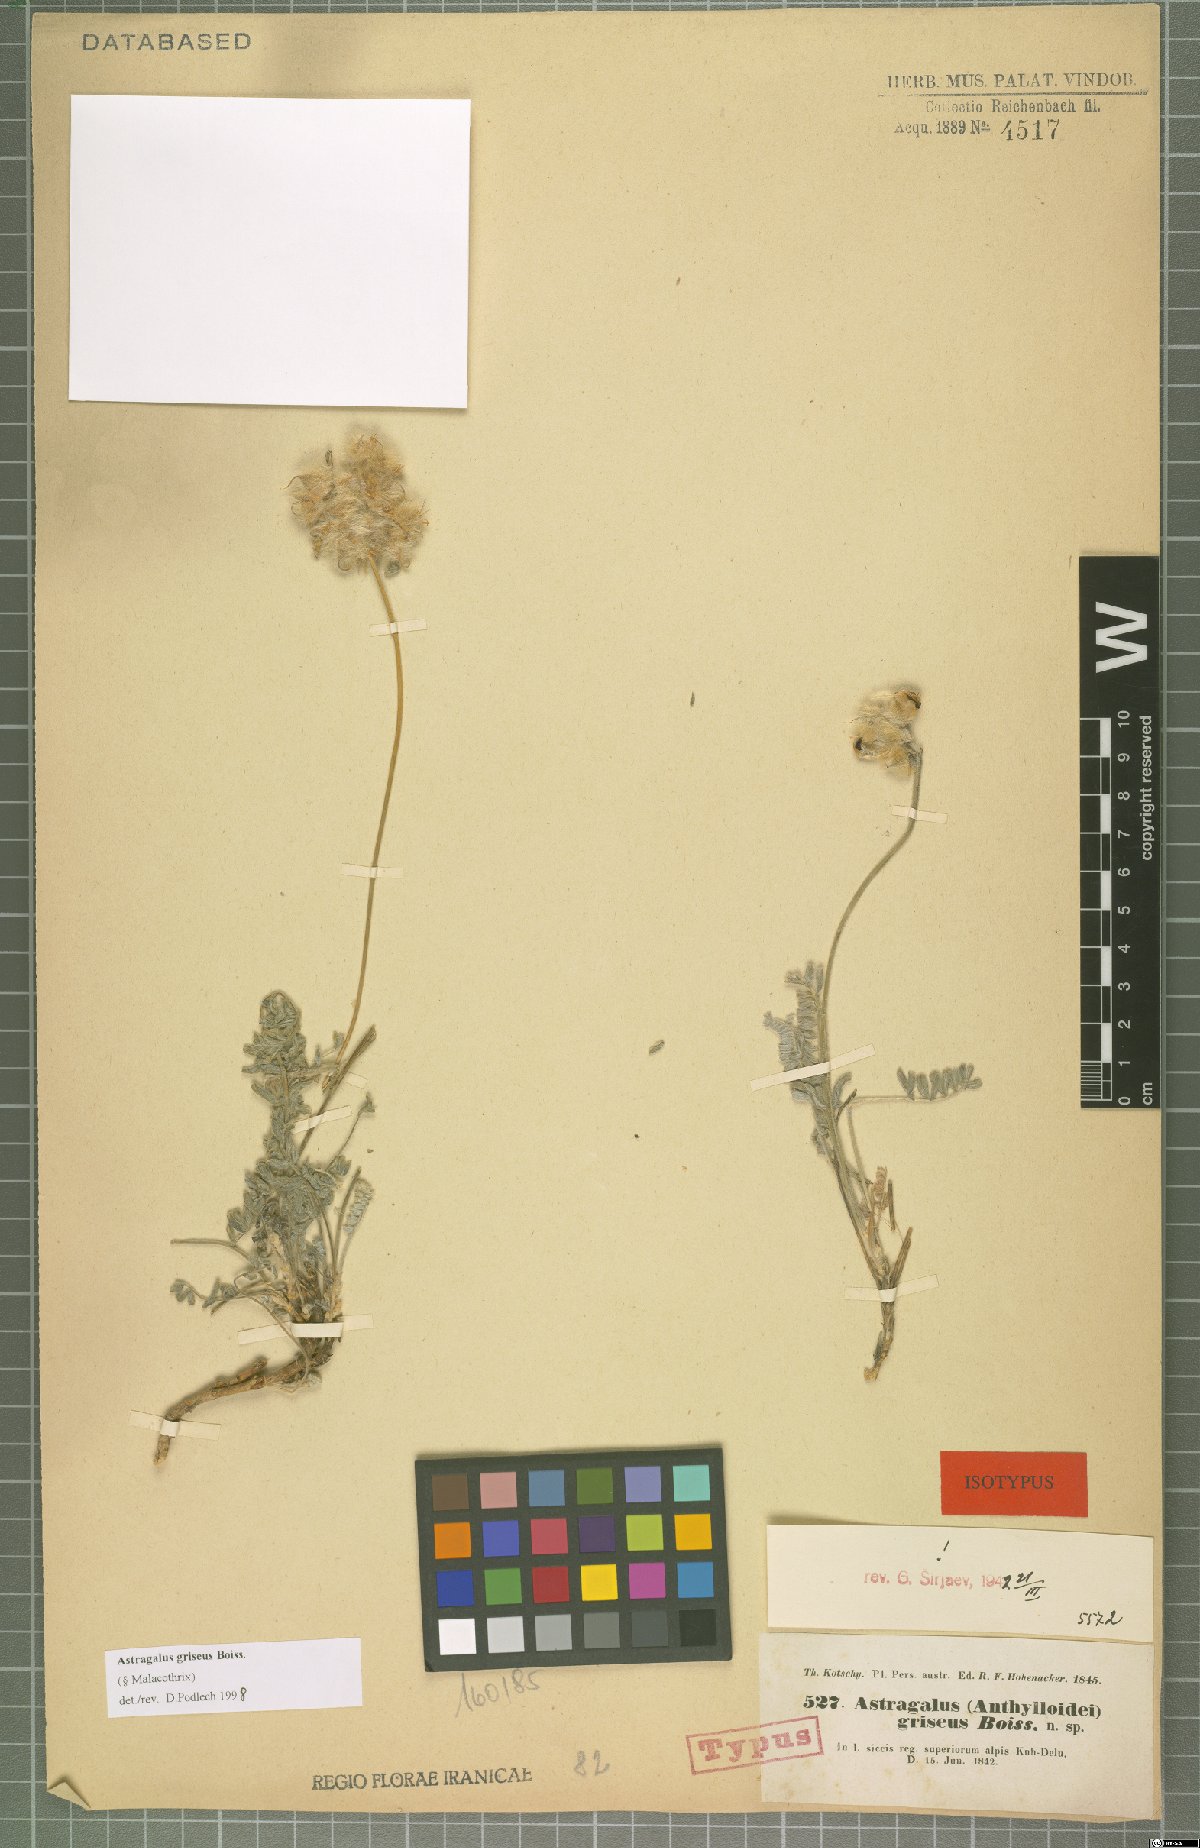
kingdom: Plantae
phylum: Tracheophyta
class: Magnoliopsida
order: Fabales
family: Fabaceae
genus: Astragalus
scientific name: Astragalus griseus
